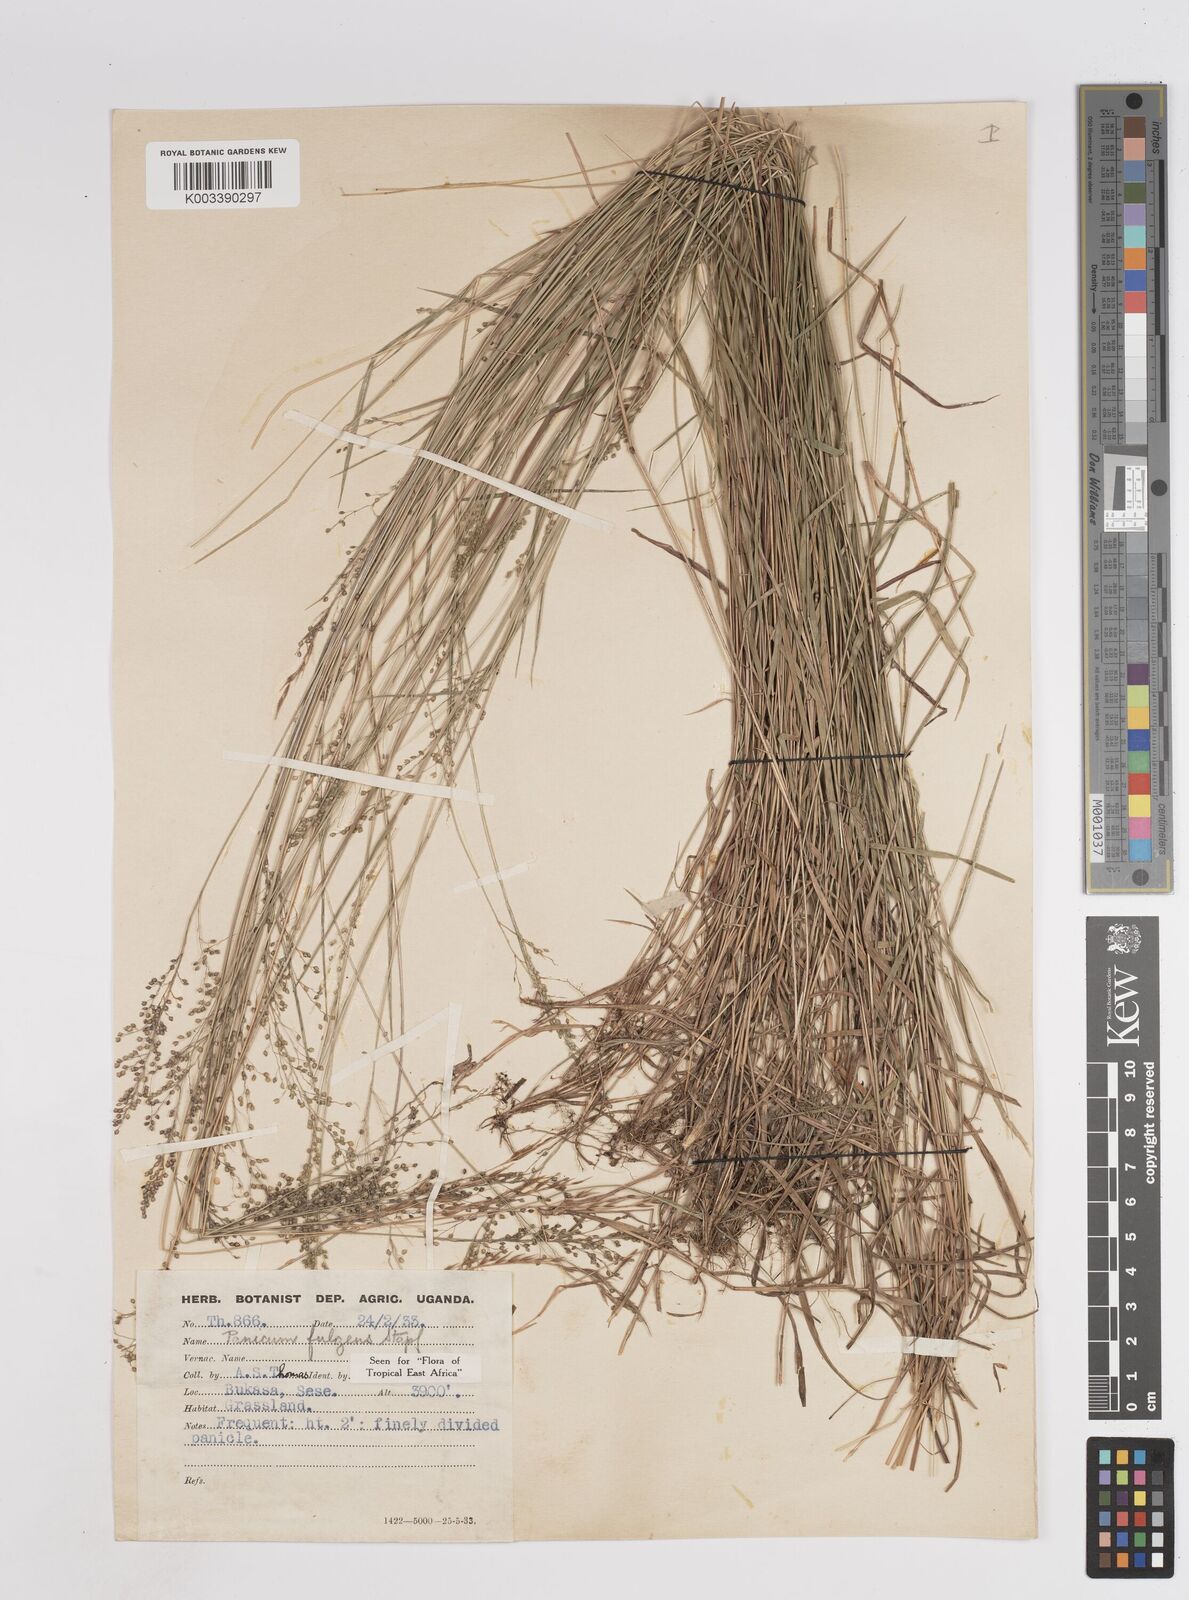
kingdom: Plantae
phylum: Tracheophyta
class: Liliopsida
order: Poales
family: Poaceae
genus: Trichanthecium
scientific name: Trichanthecium nervatum
